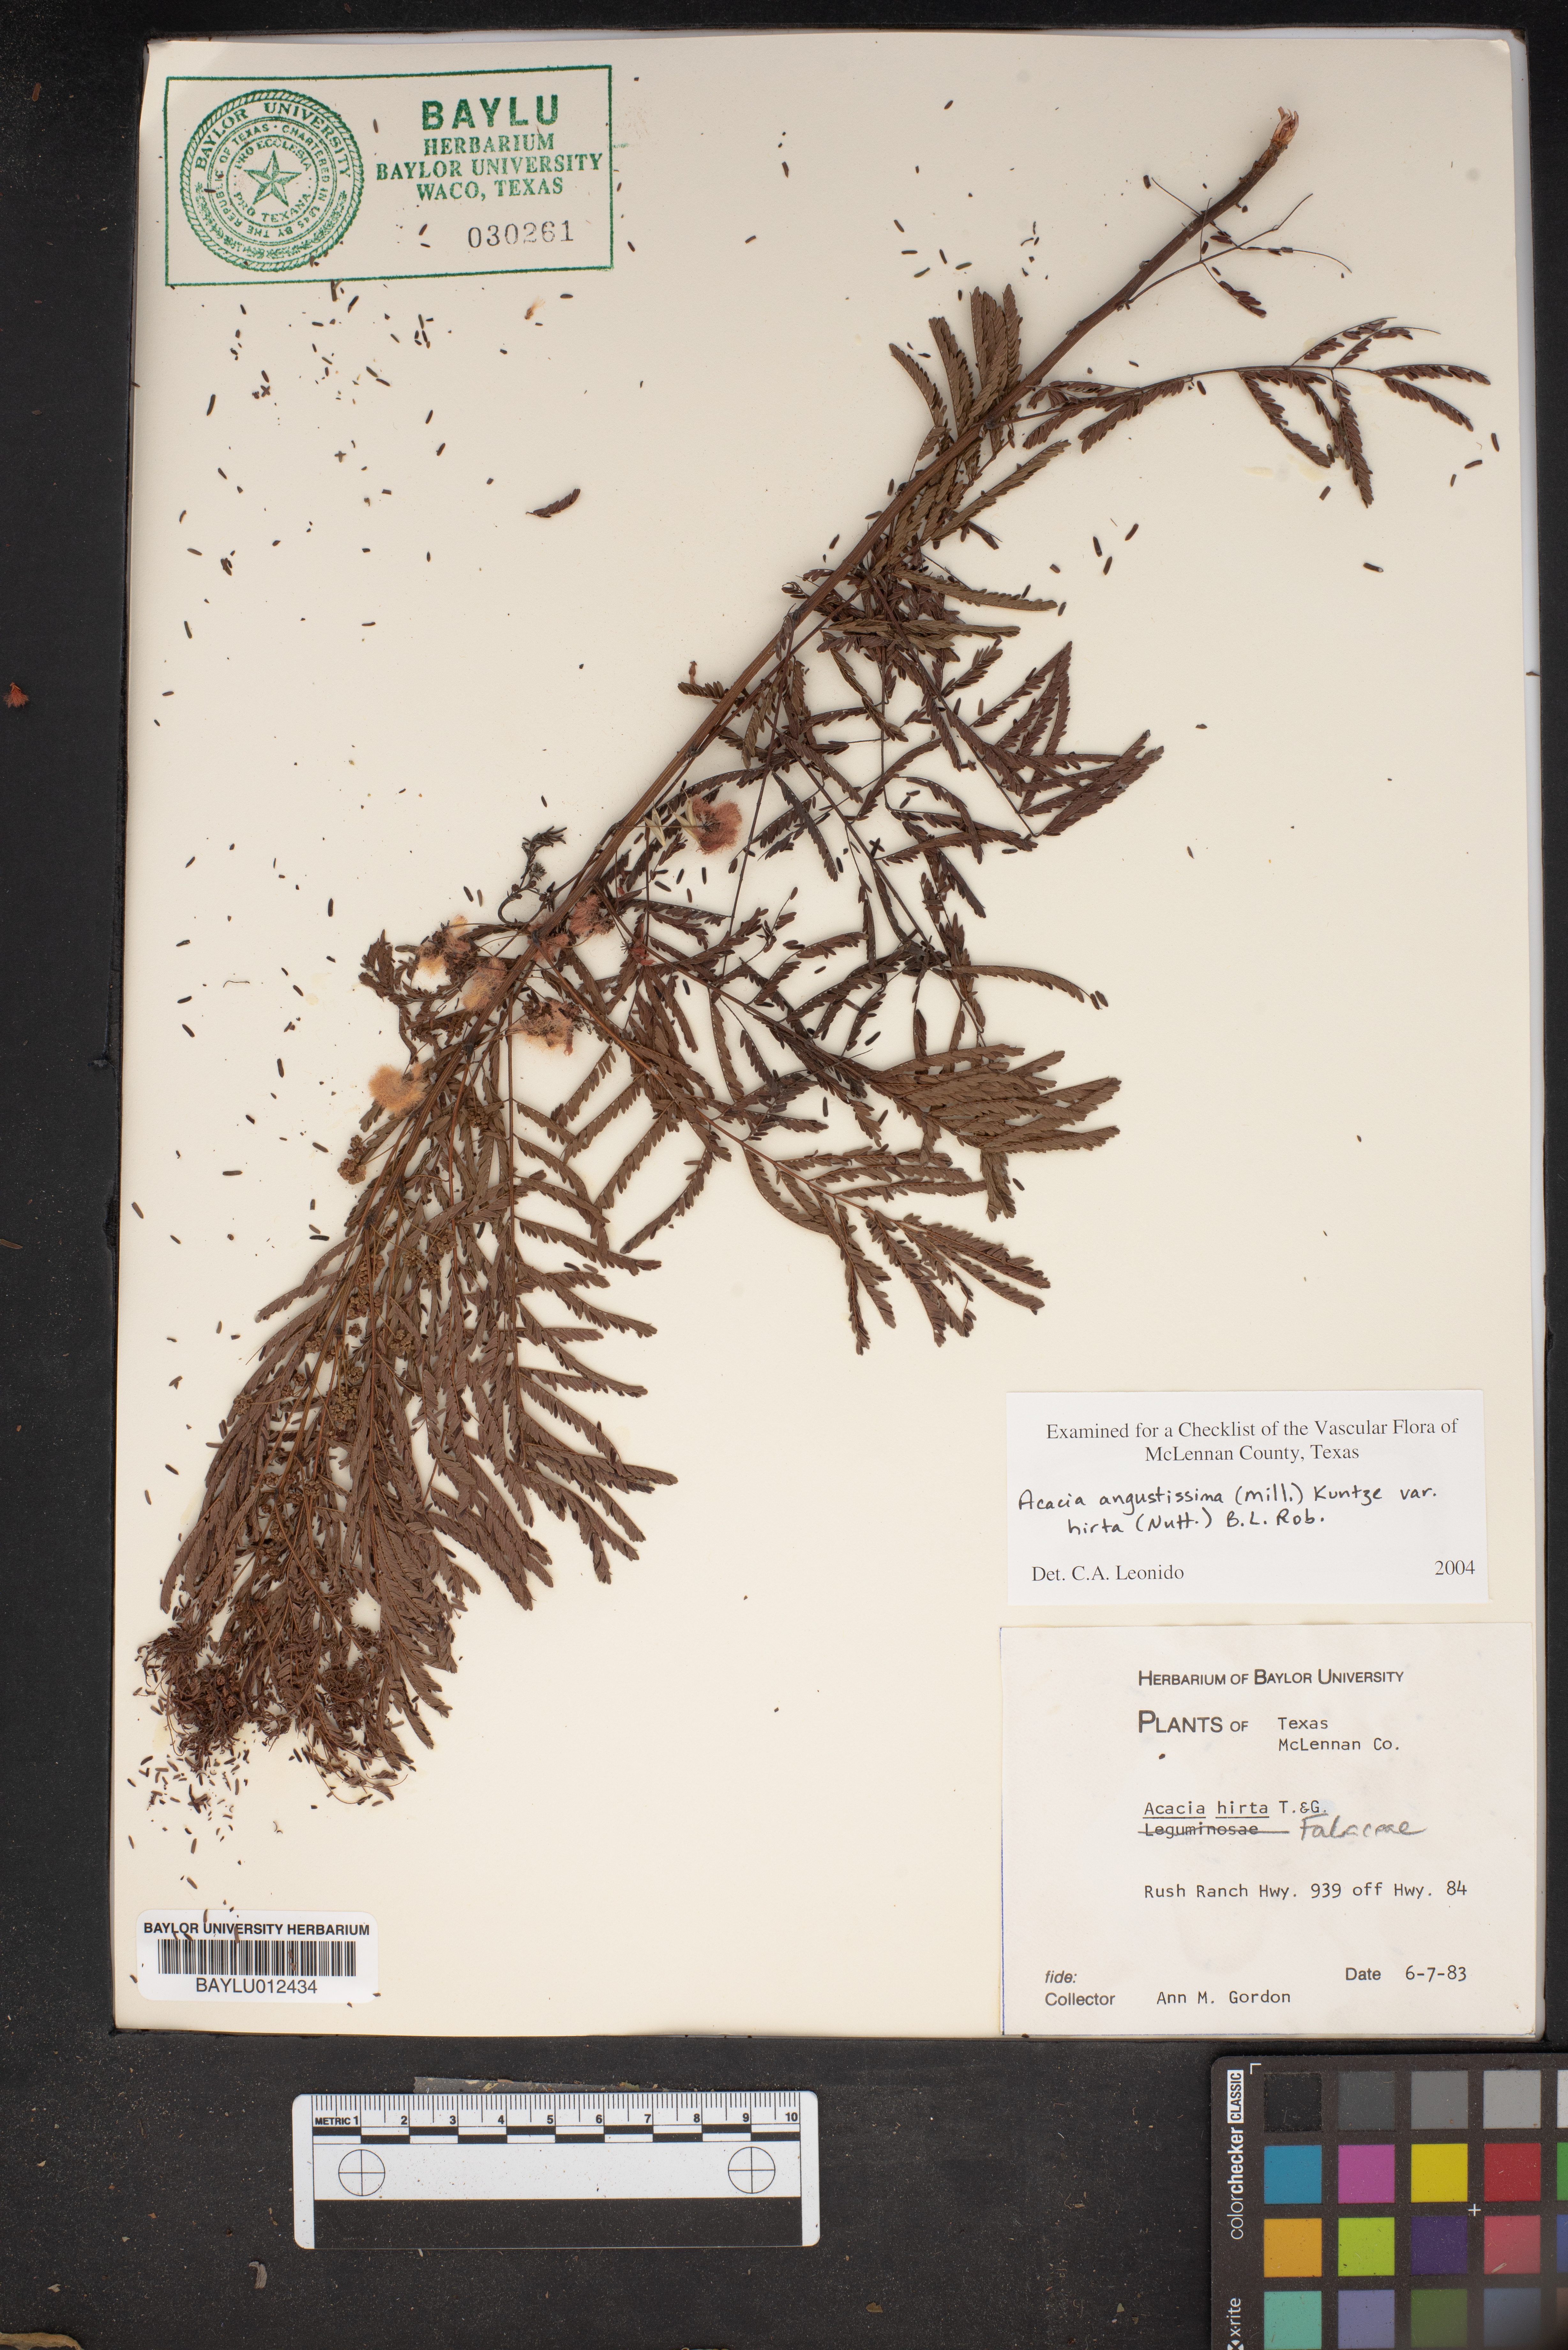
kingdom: Plantae
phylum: Tracheophyta
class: Magnoliopsida
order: Fabales
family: Fabaceae
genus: Acaciella
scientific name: Acaciella angustissima
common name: Prairie acacia
